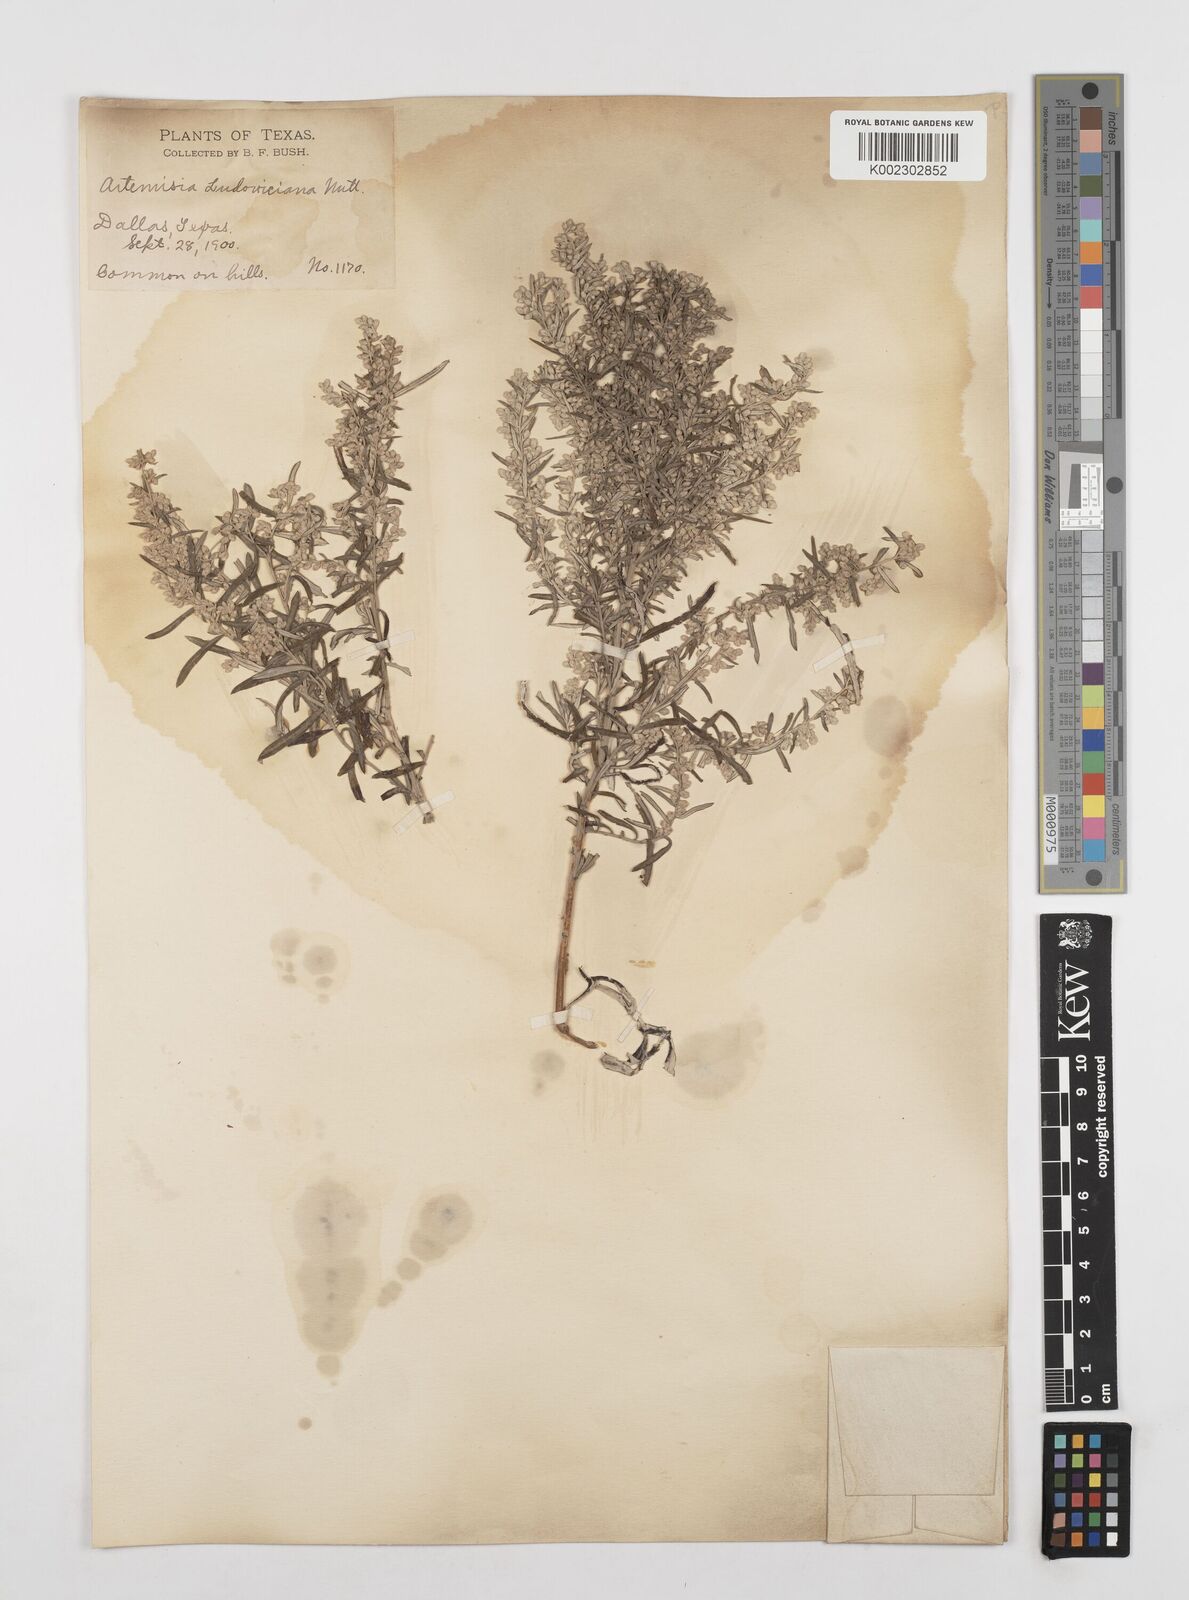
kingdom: Plantae
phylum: Tracheophyta
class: Magnoliopsida
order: Asterales
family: Asteraceae
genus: Artemisia
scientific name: Artemisia ludoviciana
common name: Western mugwort
